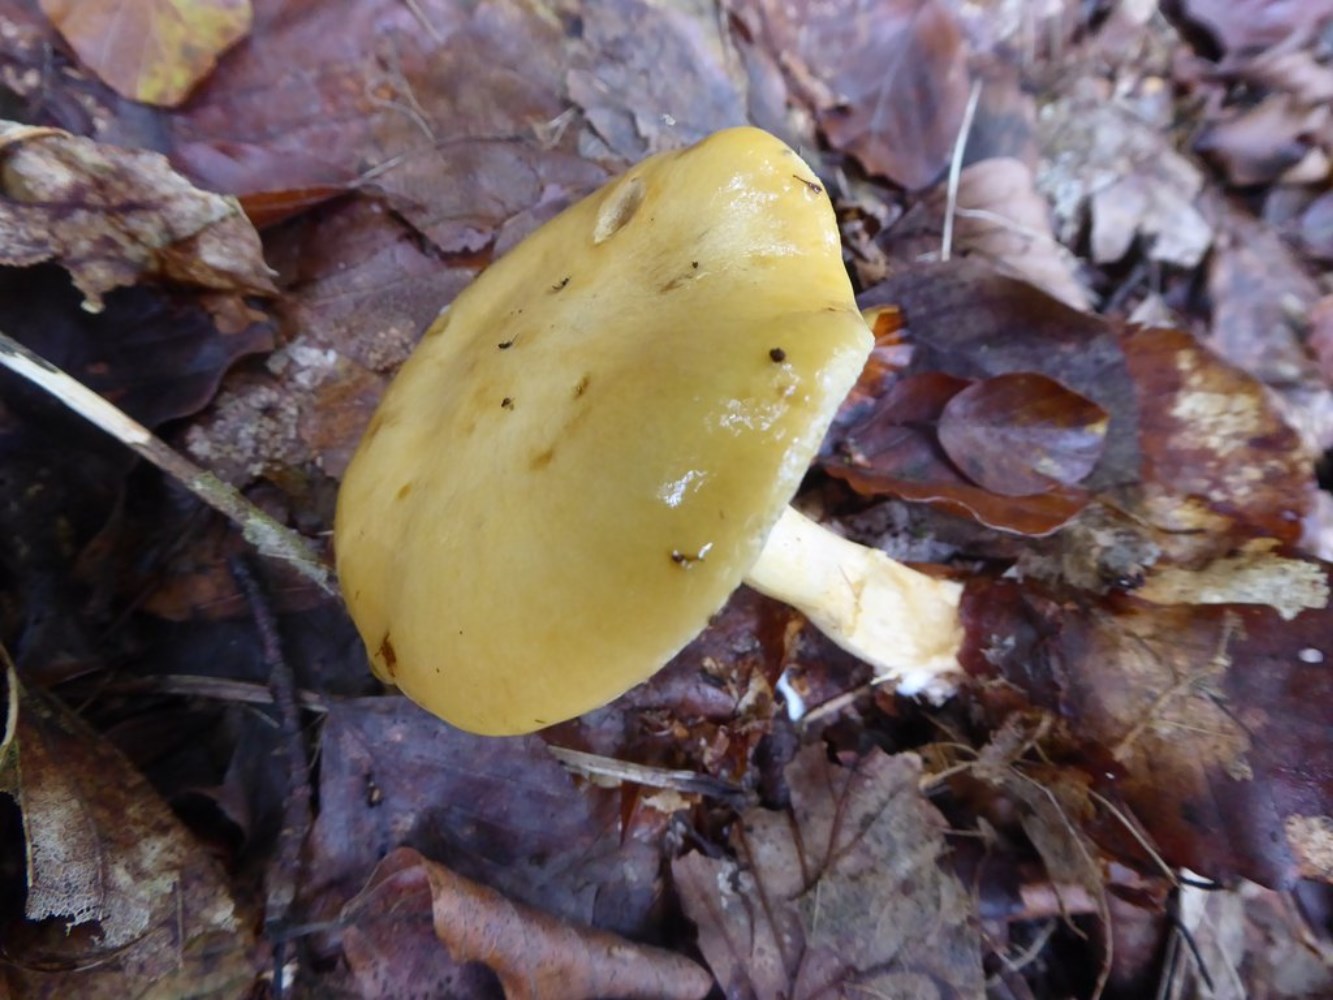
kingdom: Fungi
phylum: Basidiomycota
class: Agaricomycetes
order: Agaricales
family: Cortinariaceae
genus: Cortinarius
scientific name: Cortinarius delibutus
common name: gul slørhat
